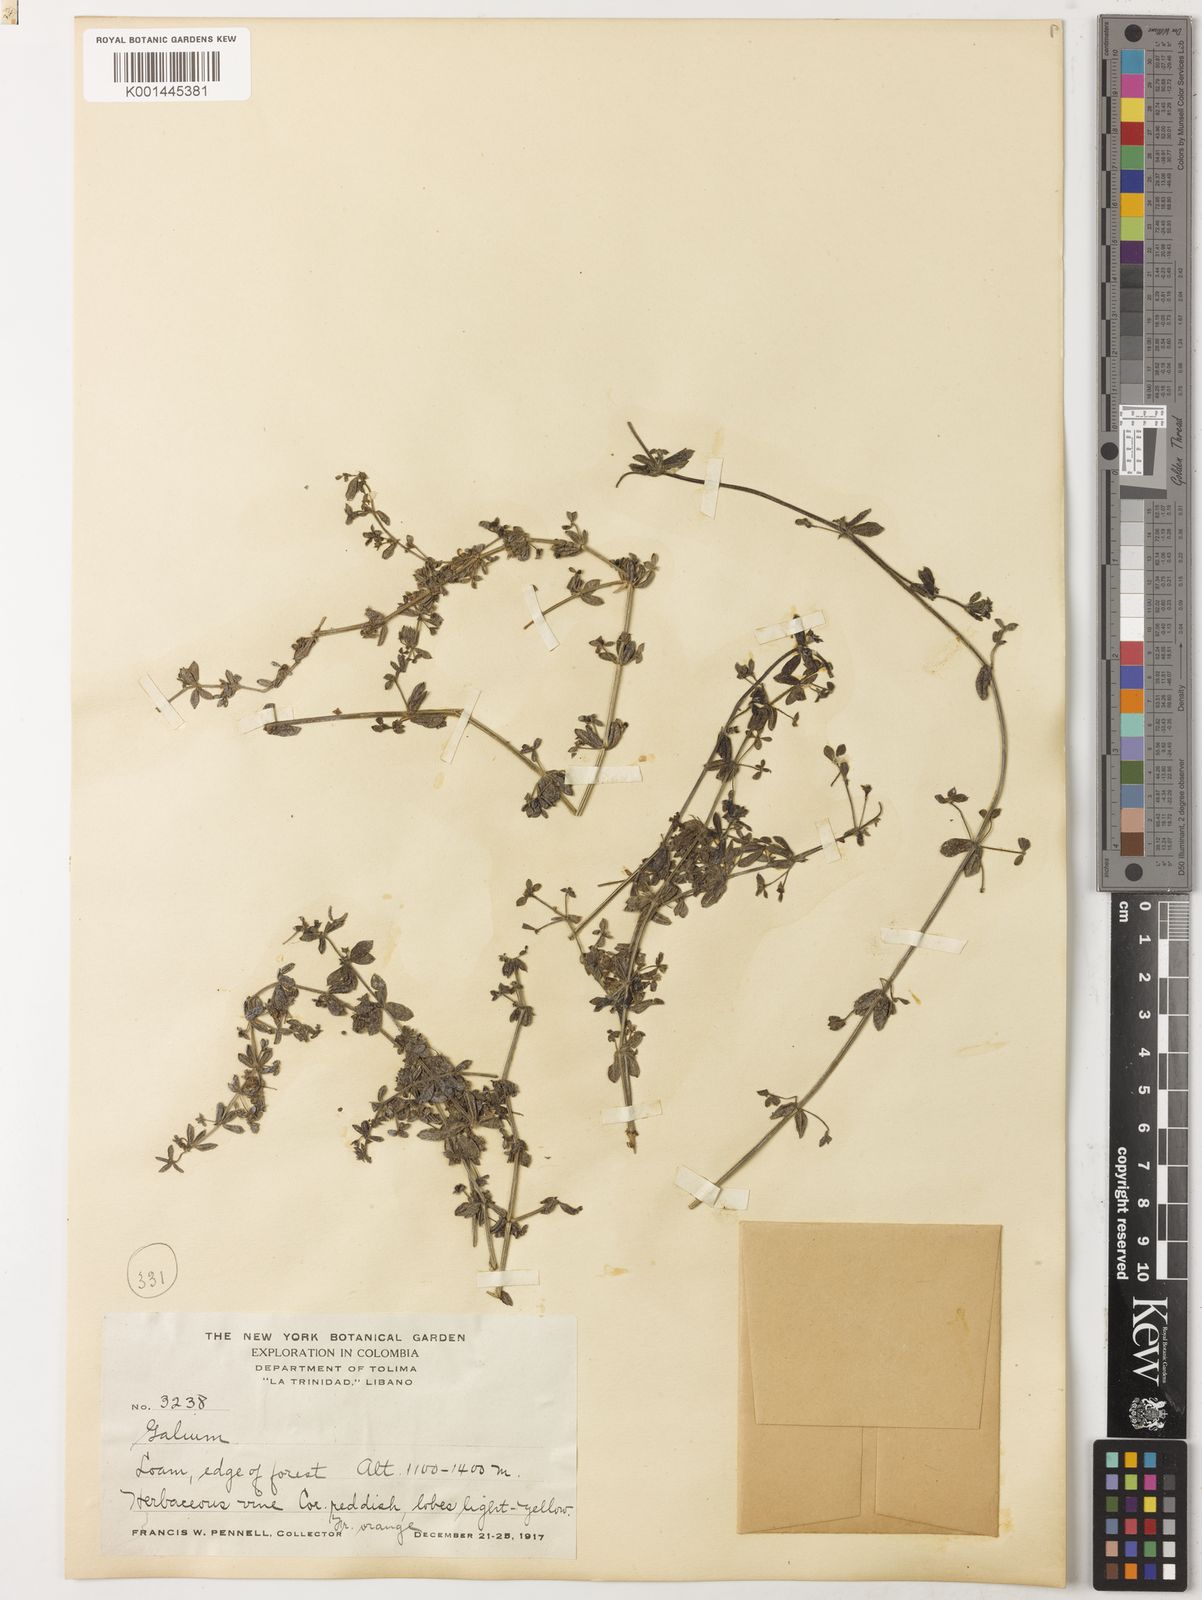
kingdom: Plantae
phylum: Tracheophyta
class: Magnoliopsida
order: Gentianales
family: Rubiaceae
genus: Galium
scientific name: Galium
